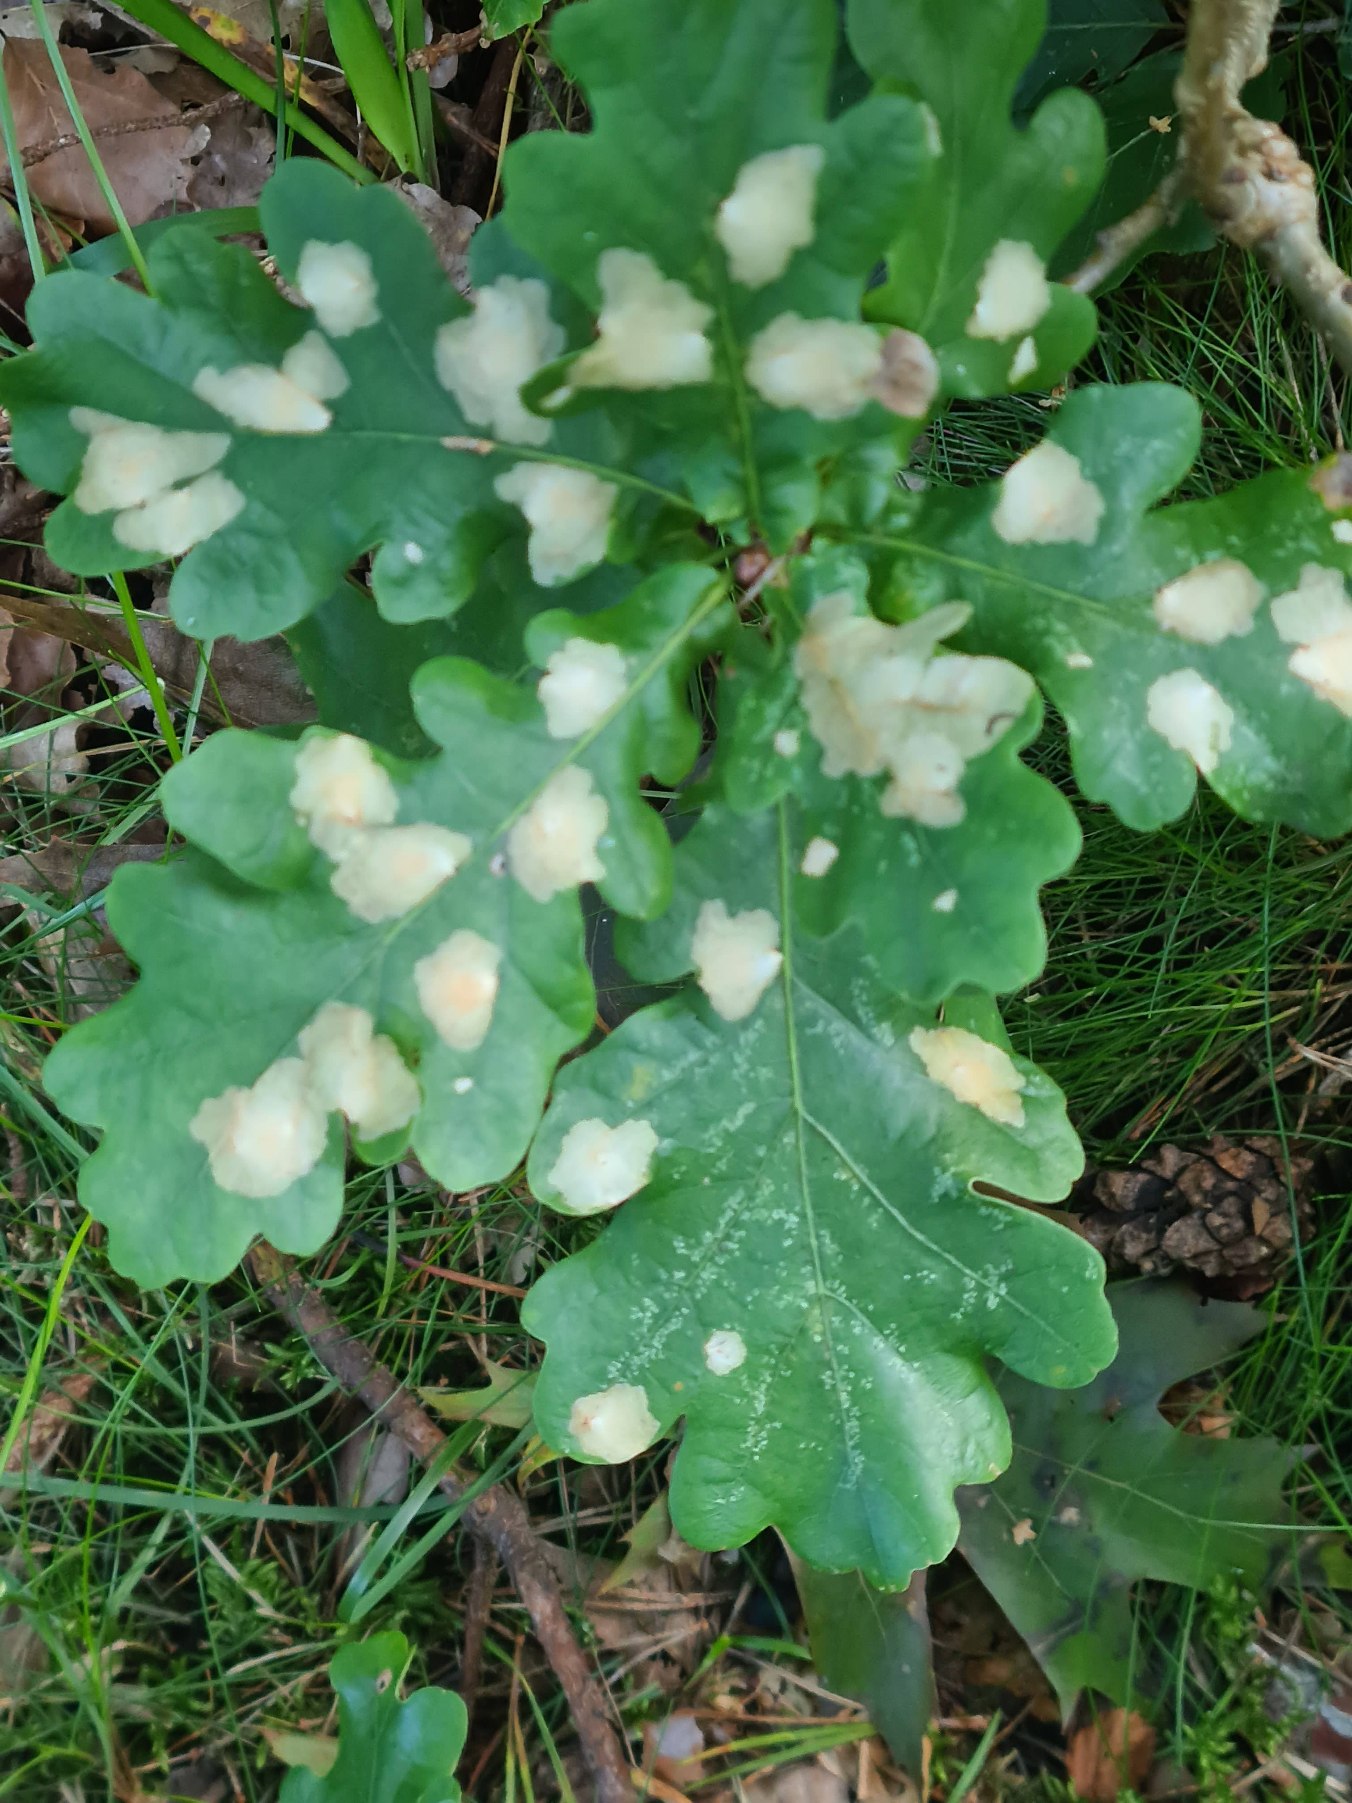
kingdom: Animalia
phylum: Arthropoda
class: Insecta
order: Lepidoptera
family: Tischeriidae
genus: Tischeria
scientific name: Tischeria ekebladella
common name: Egepandeduskmøl
